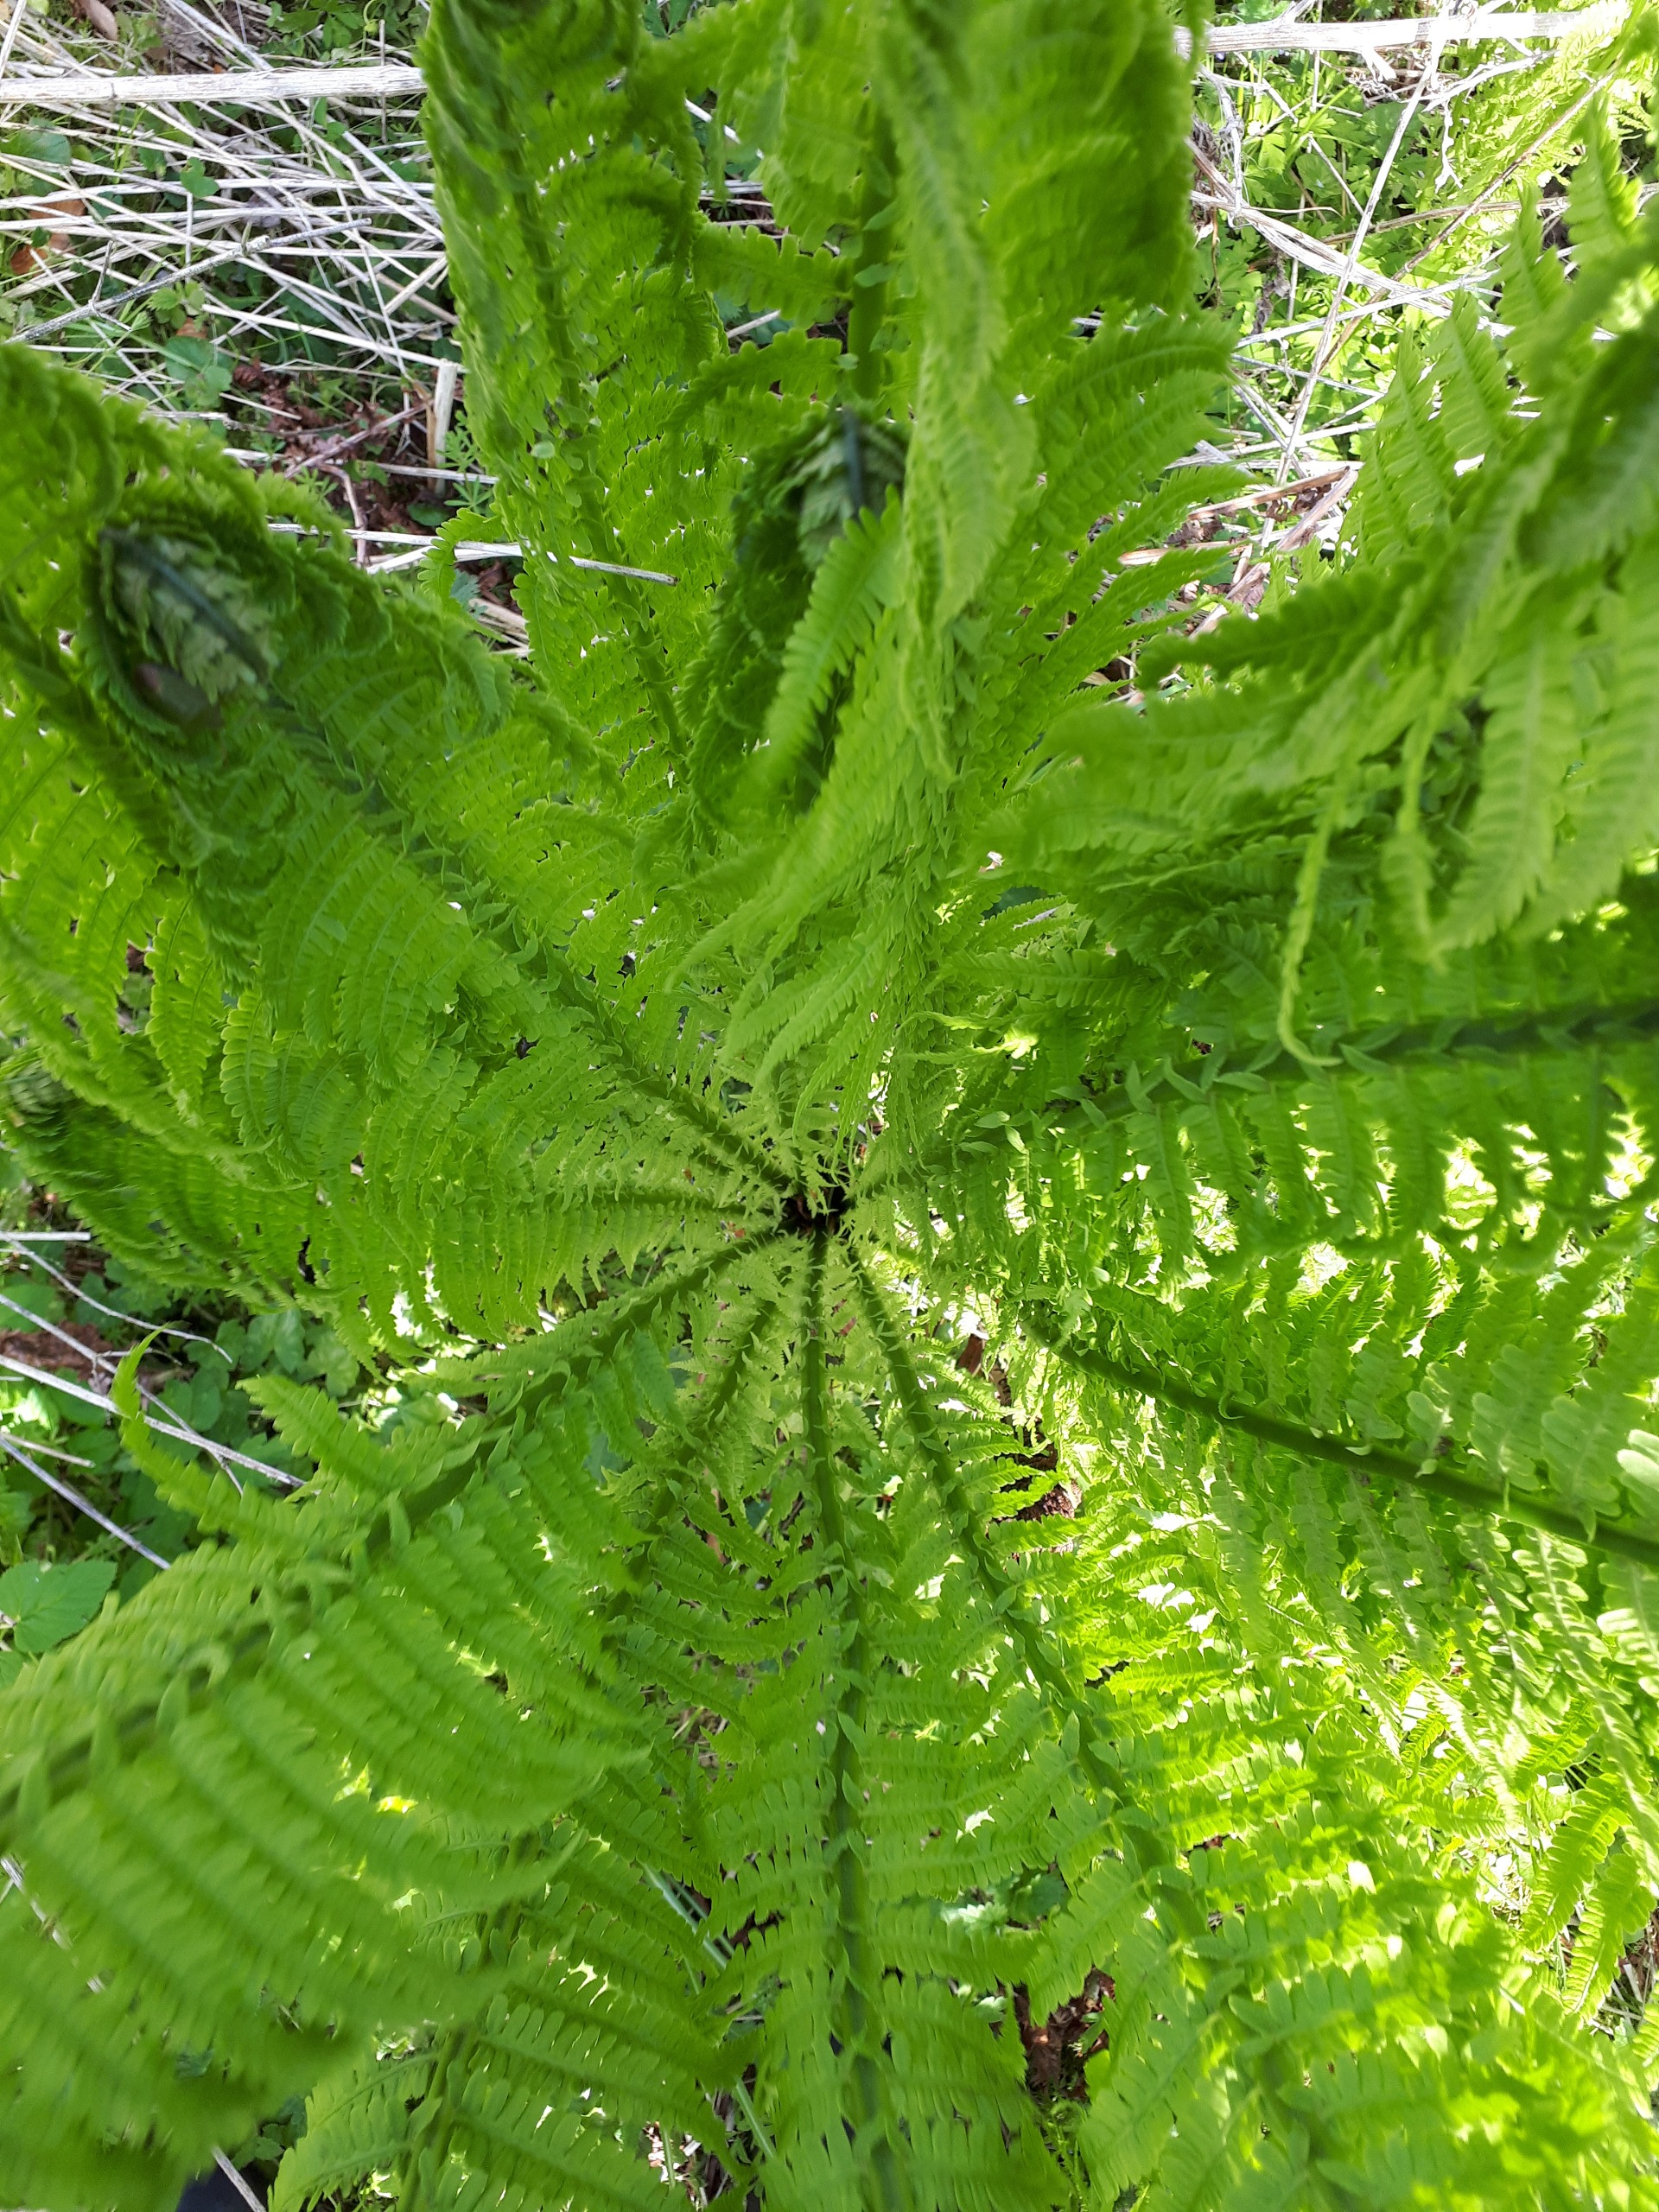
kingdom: Plantae
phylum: Tracheophyta
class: Polypodiopsida
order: Polypodiales
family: Onocleaceae
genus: Matteuccia
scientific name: Matteuccia struthiopteris
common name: Strudsvinge
